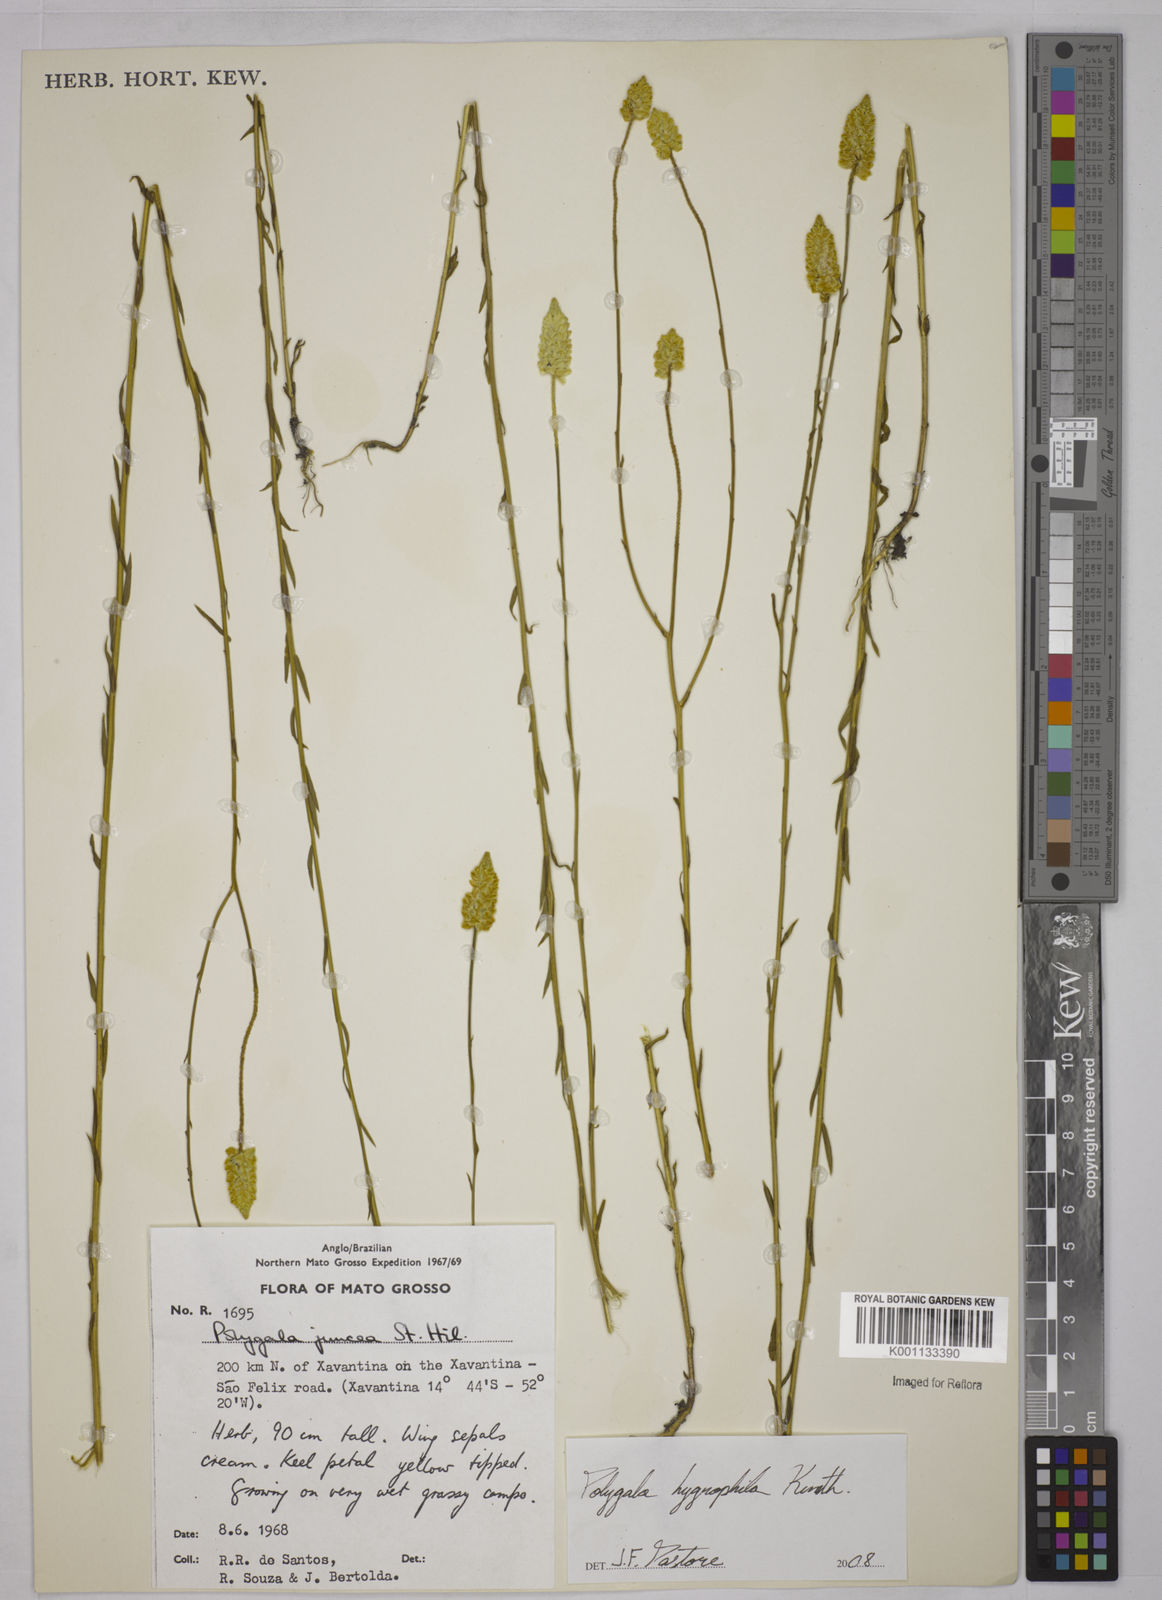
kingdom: Plantae
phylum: Tracheophyta
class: Magnoliopsida
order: Fabales
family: Polygalaceae
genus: Polygala
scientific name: Polygala hygrophila
